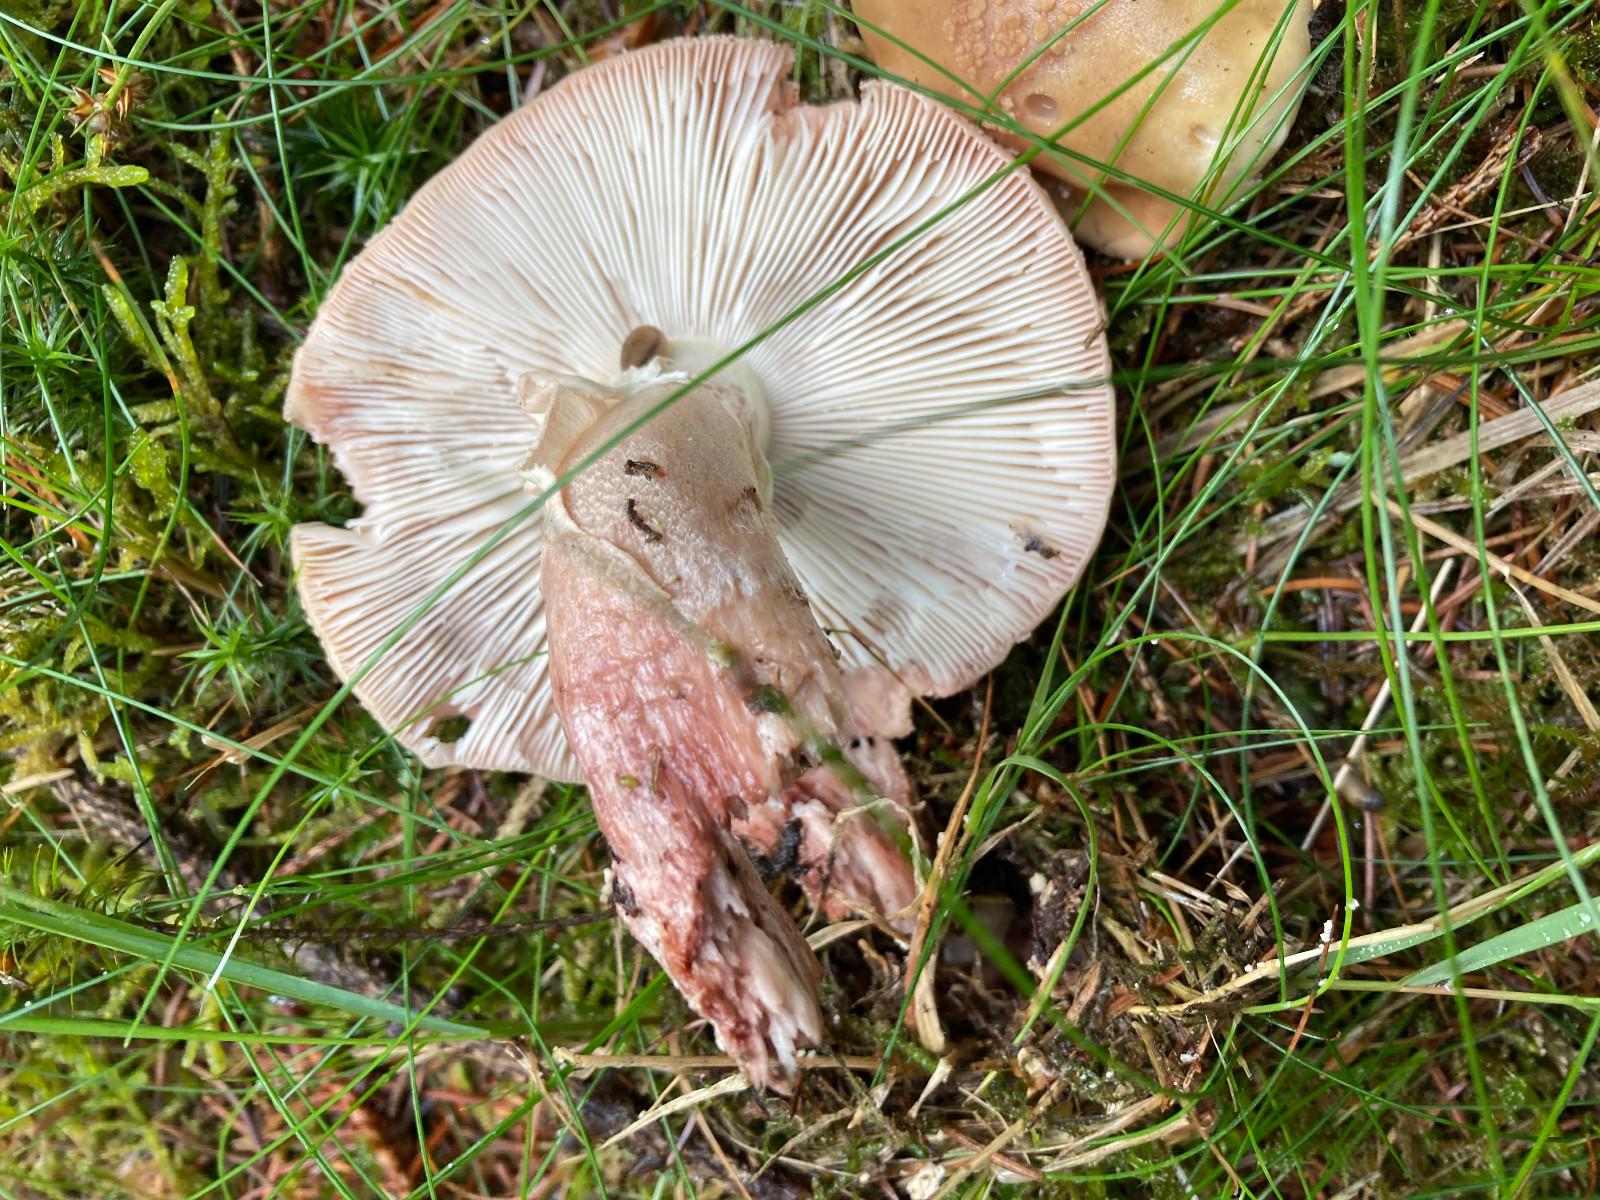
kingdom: Fungi
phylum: Basidiomycota
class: Agaricomycetes
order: Agaricales
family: Amanitaceae
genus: Amanita
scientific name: Amanita rubescens
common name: rødmende fluesvamp
